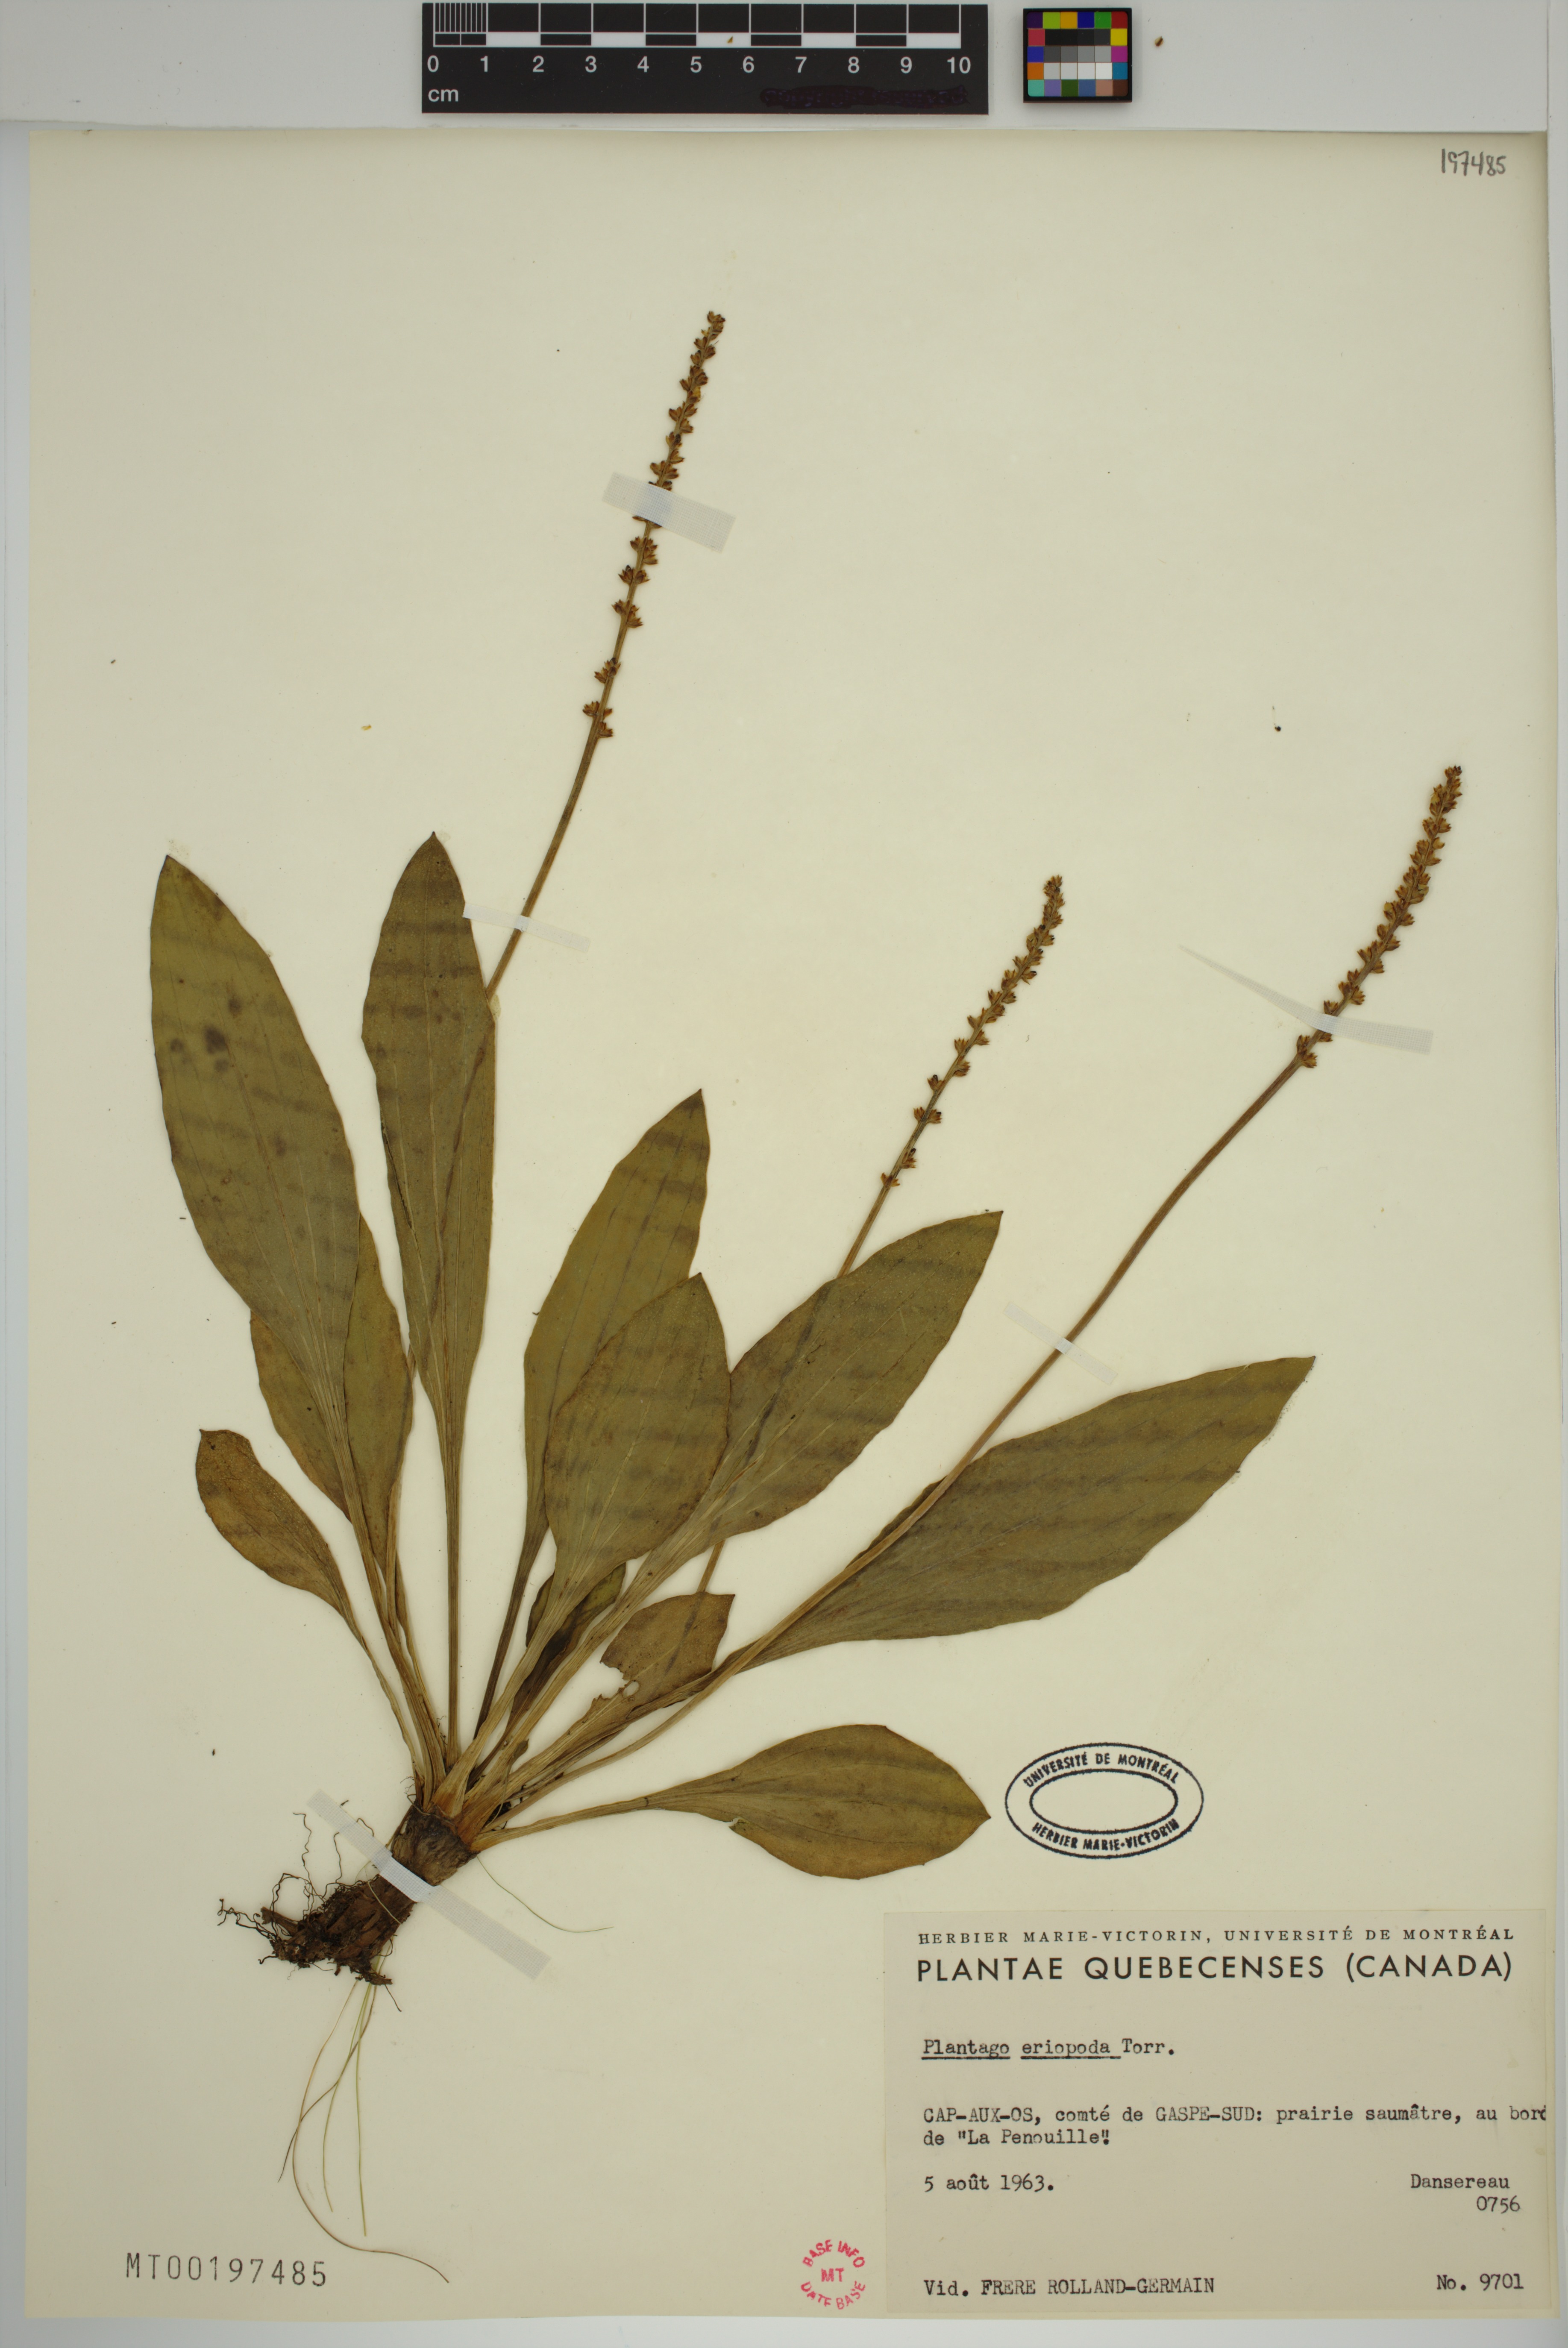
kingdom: Plantae
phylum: Tracheophyta
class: Magnoliopsida
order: Lamiales
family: Plantaginaceae
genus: Plantago
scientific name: Plantago eriopoda
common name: Alkali plantain
